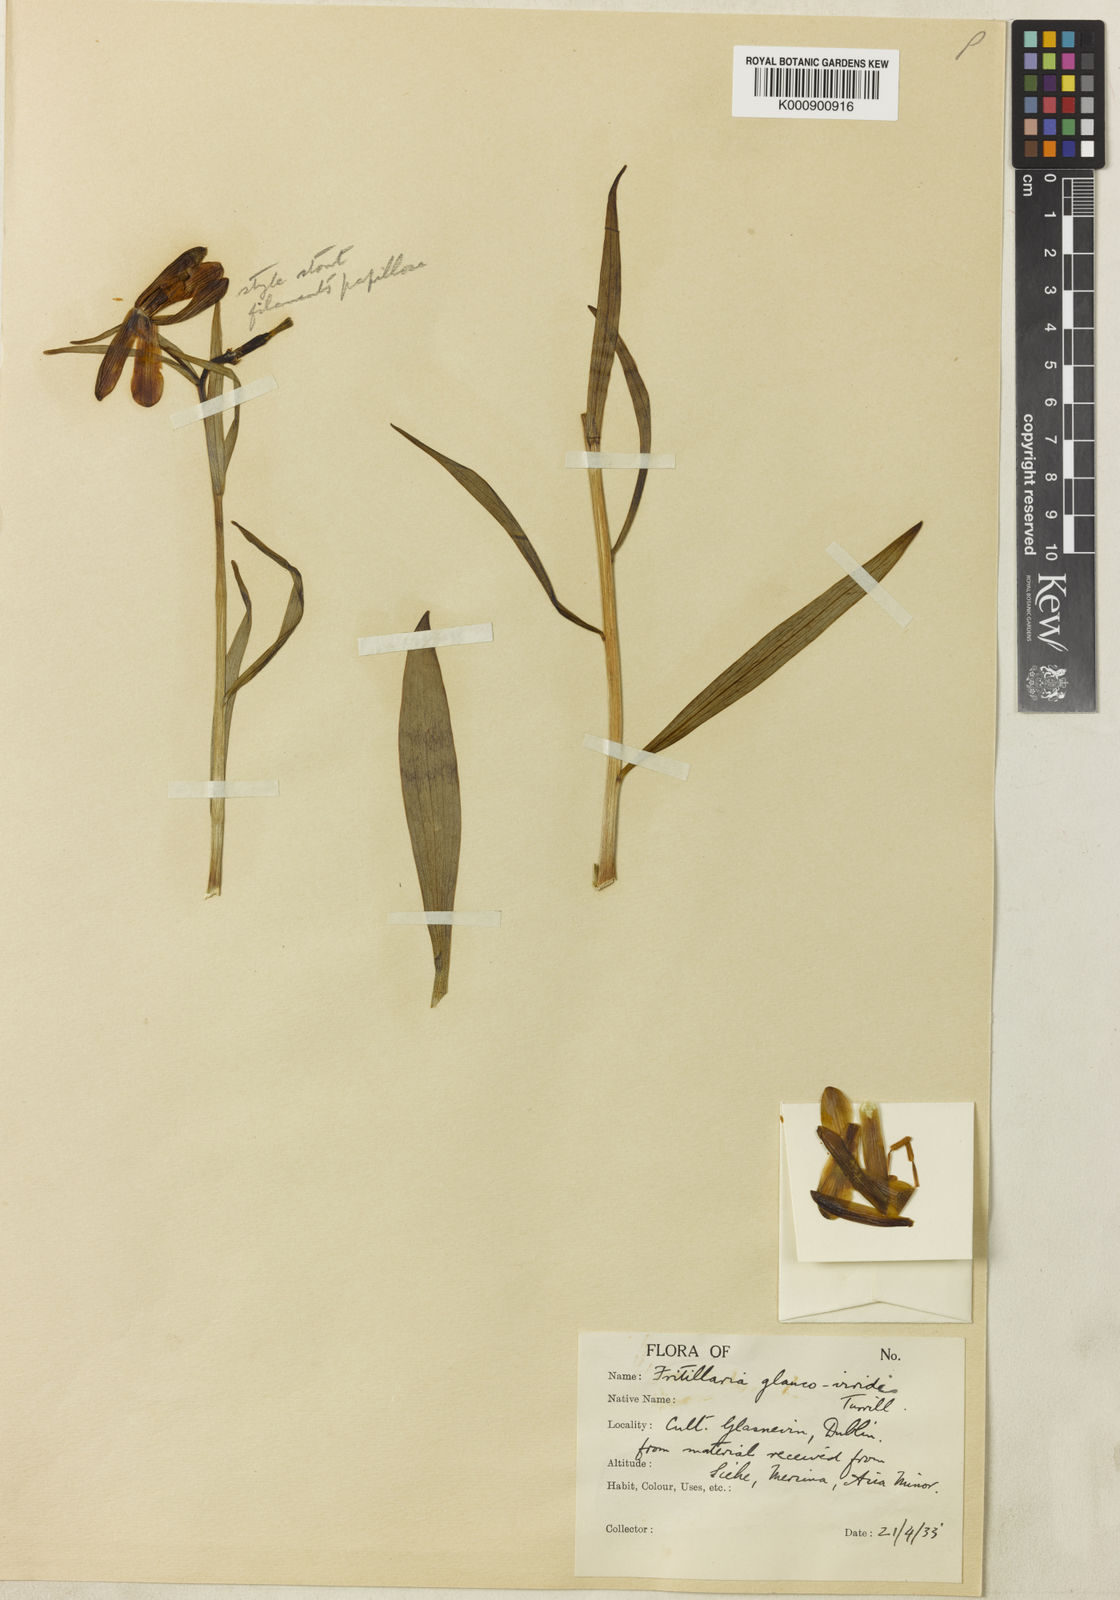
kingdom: Plantae
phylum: Tracheophyta
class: Liliopsida
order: Liliales
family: Liliaceae
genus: Fritillaria
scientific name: Fritillaria alfredae
